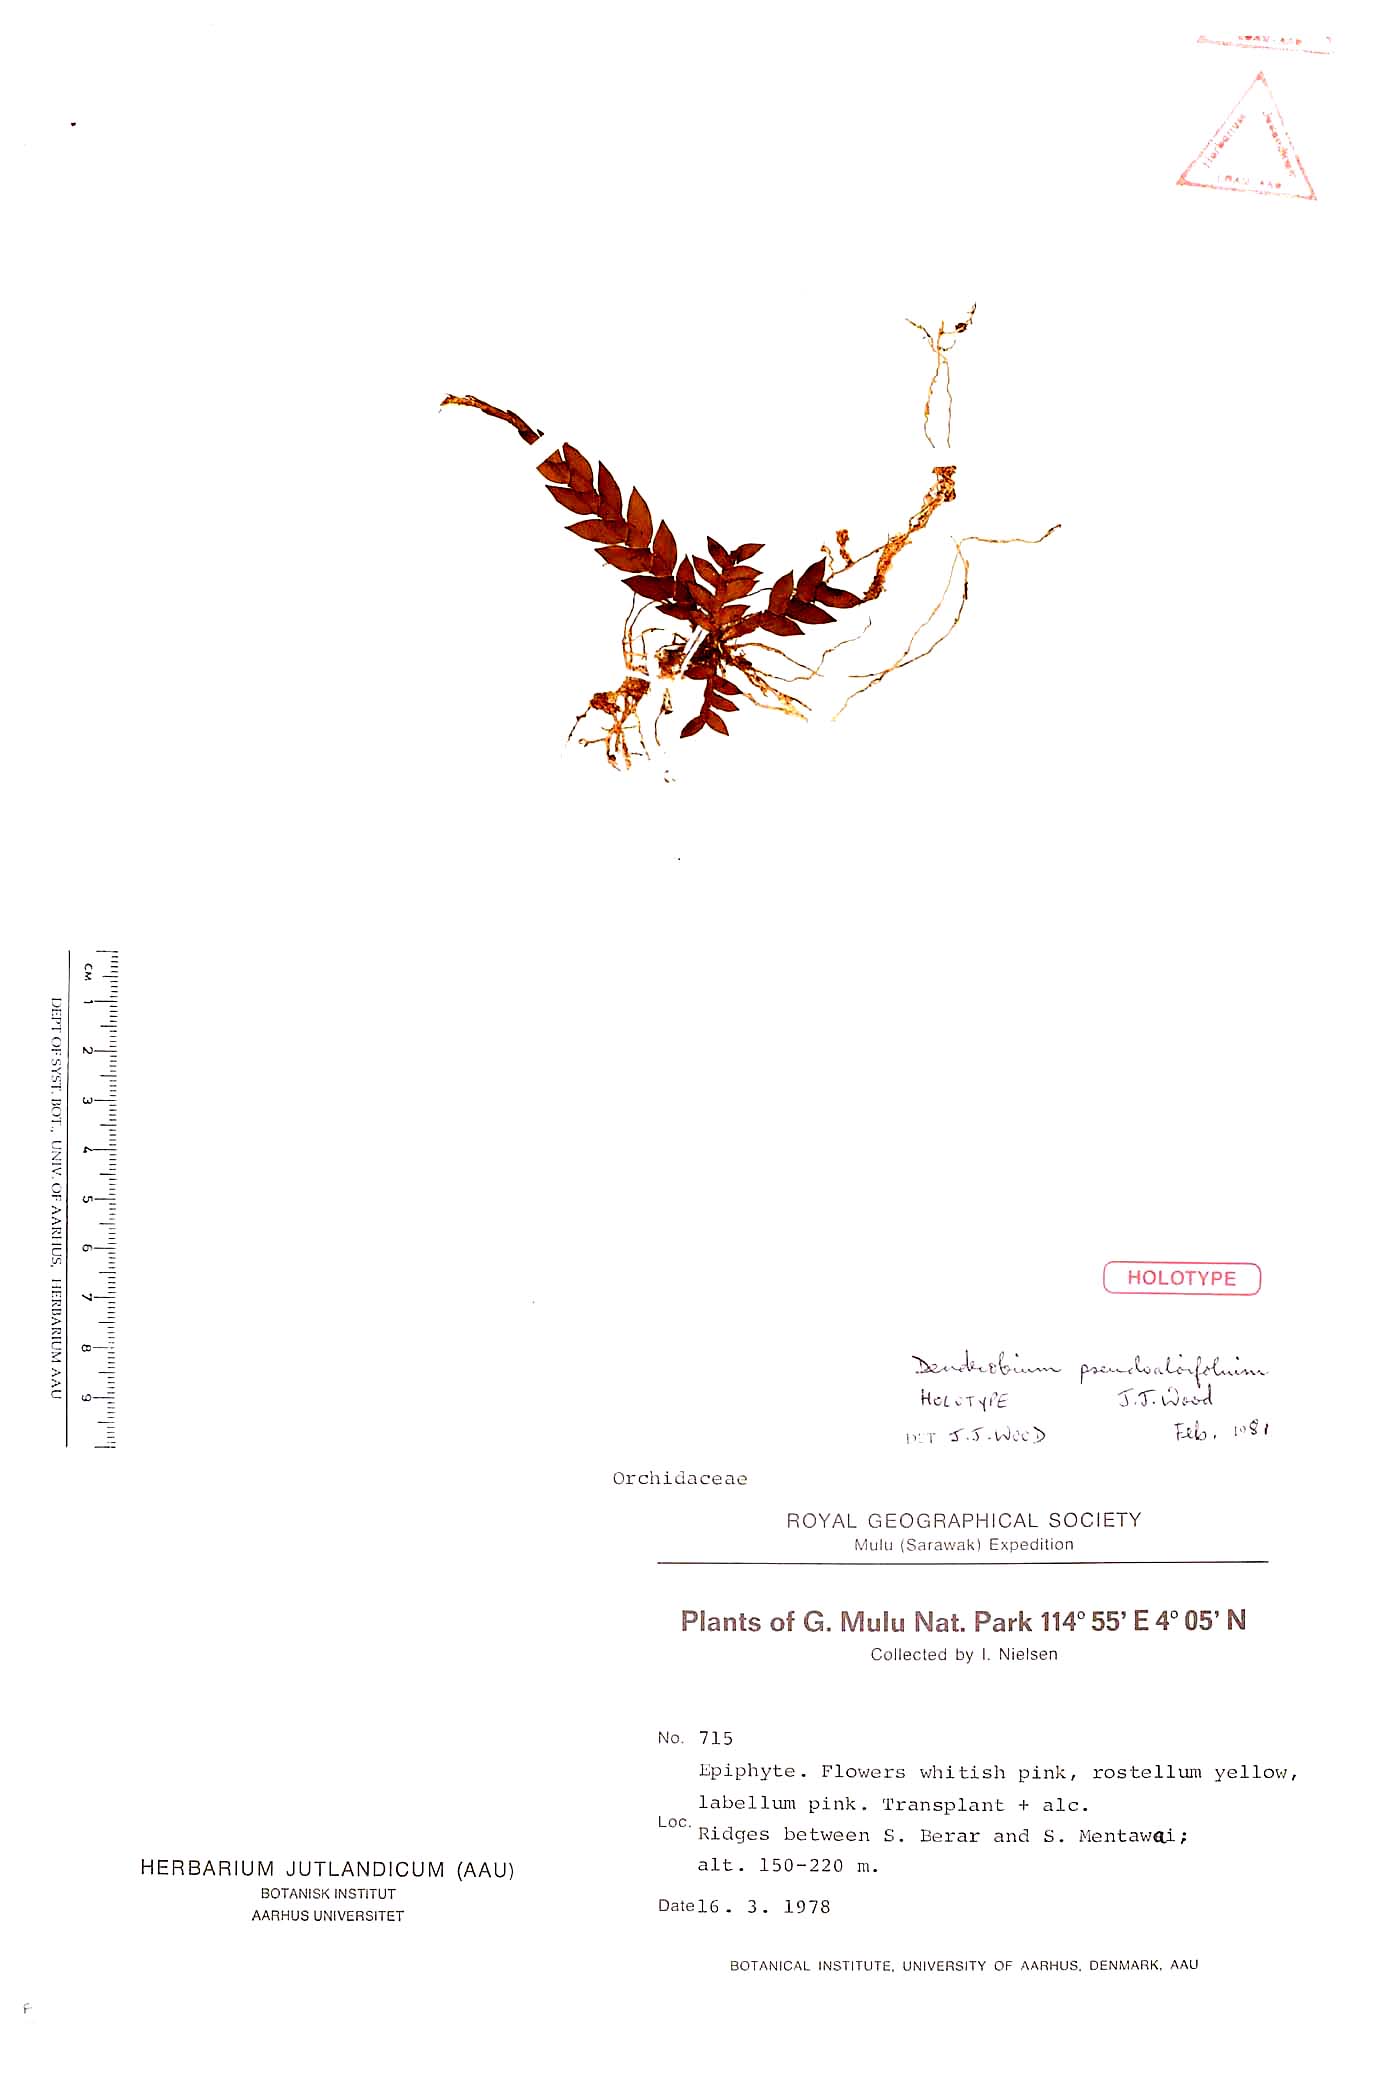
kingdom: Plantae
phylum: Tracheophyta
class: Liliopsida
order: Asparagales
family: Orchidaceae
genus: Dendrobium
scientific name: Dendrobium pseudoaloifolium
